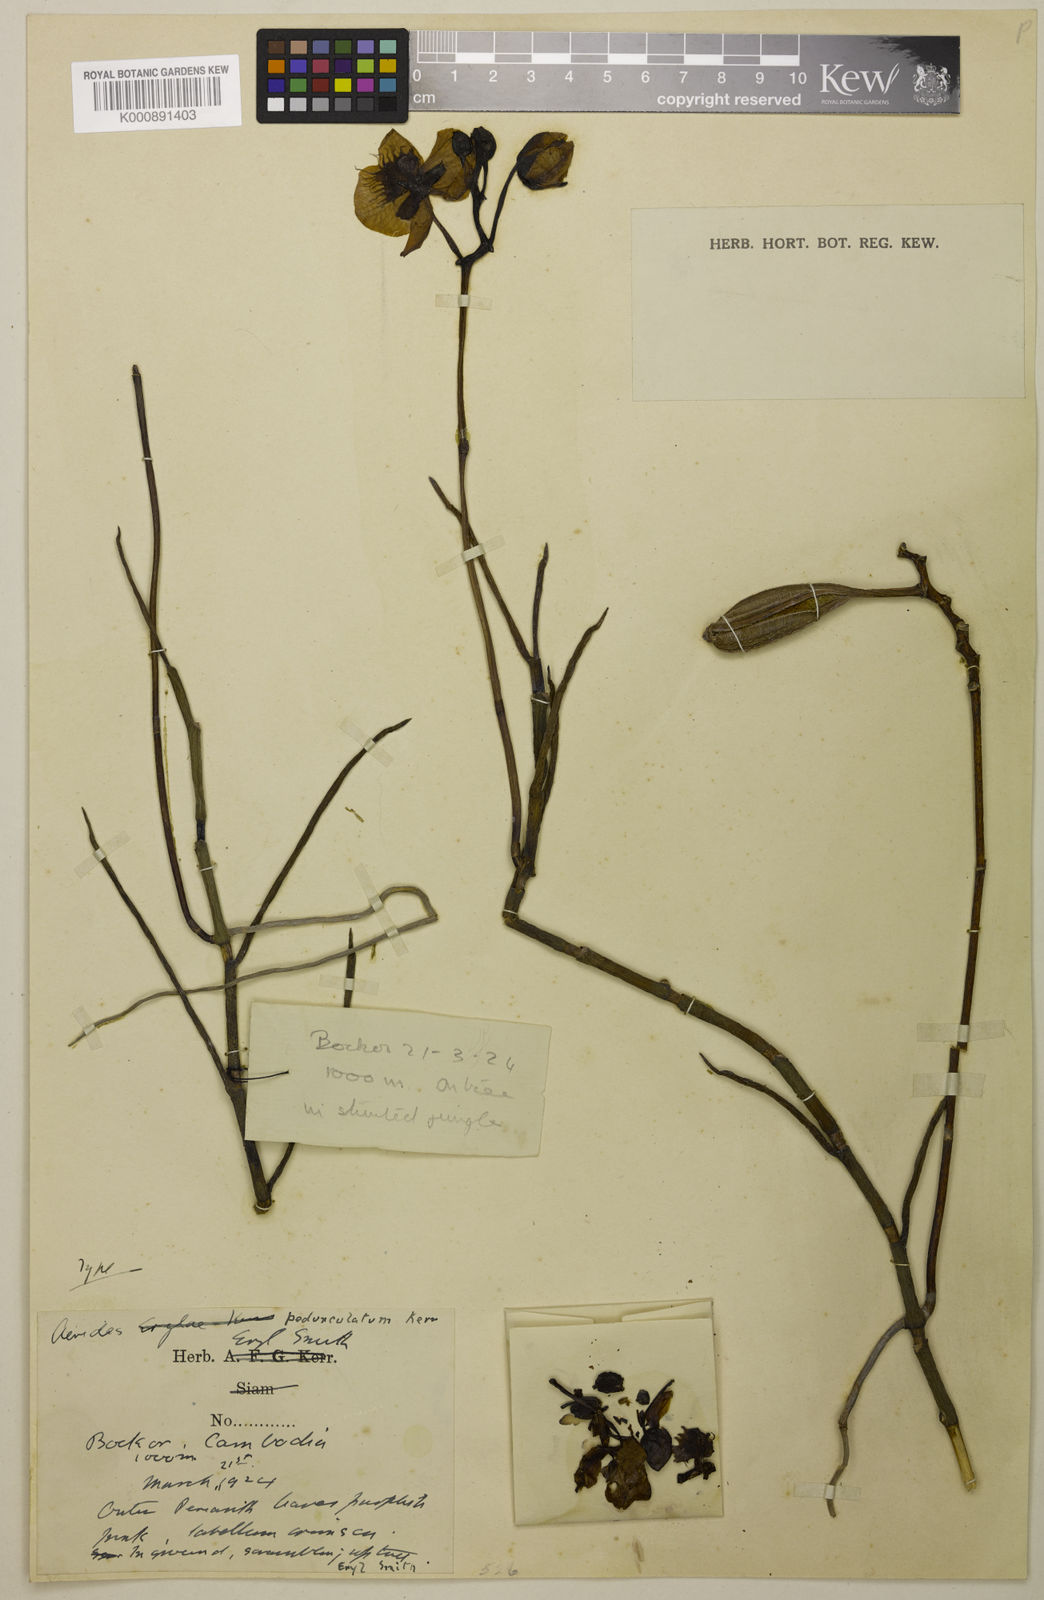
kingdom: Plantae
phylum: Tracheophyta
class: Liliopsida
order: Asparagales
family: Orchidaceae
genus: Papilionanthe
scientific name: Papilionanthe pedunculata
